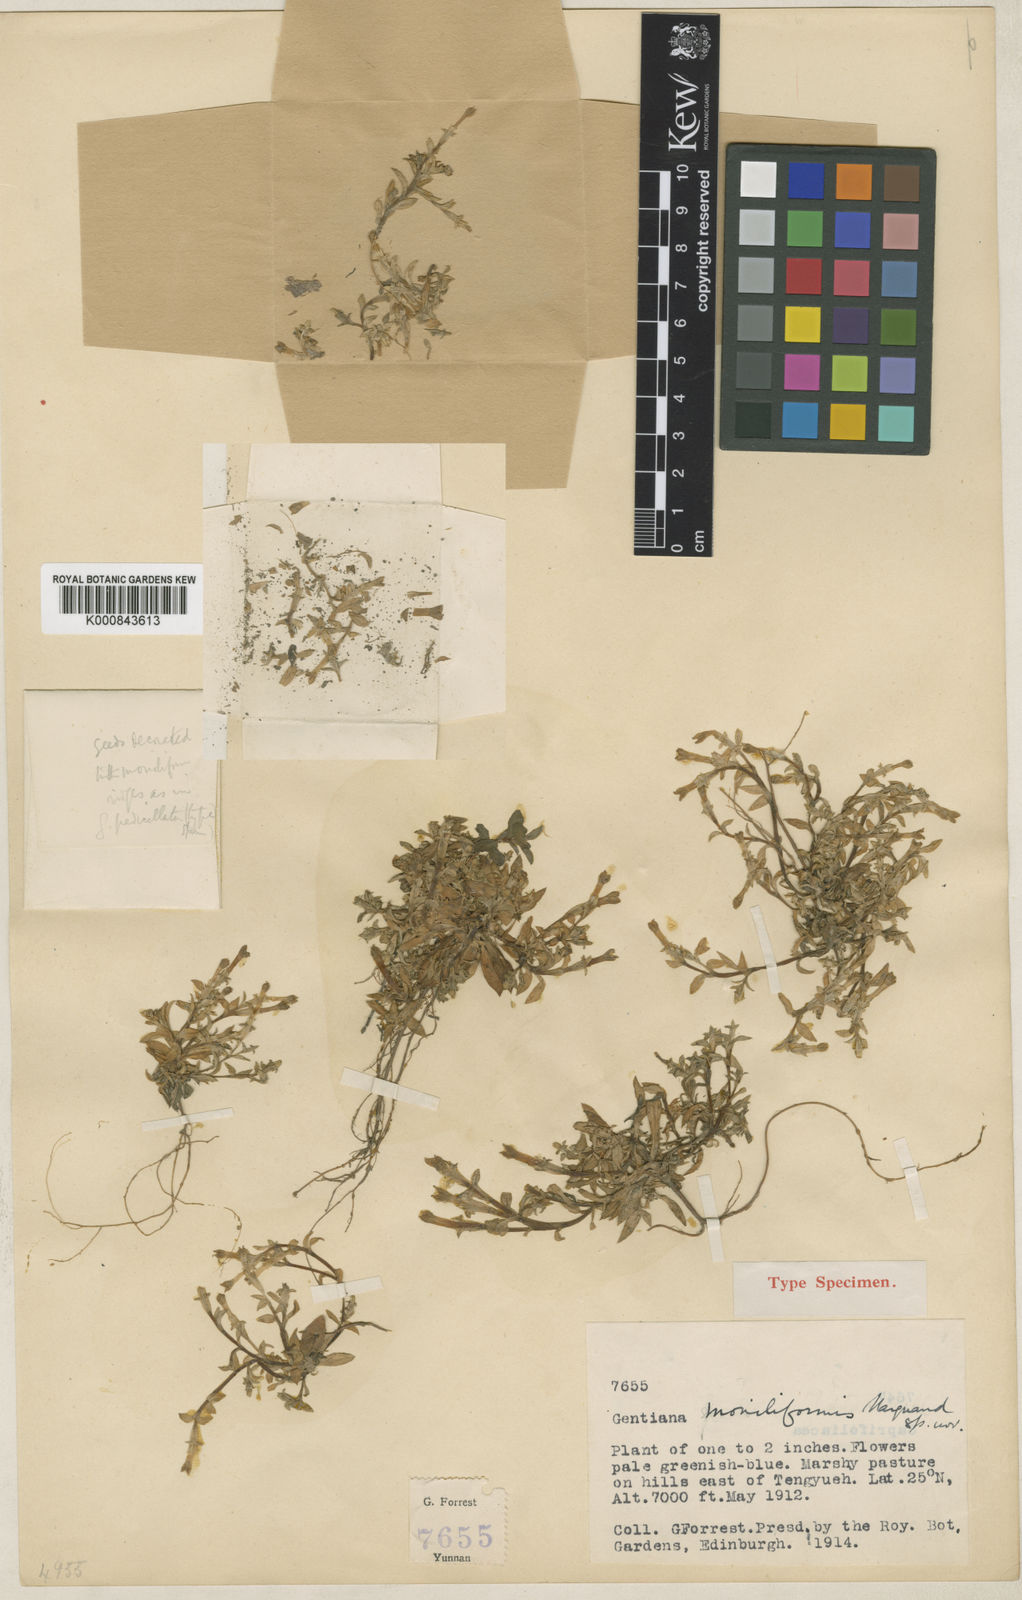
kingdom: Plantae
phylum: Tracheophyta
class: Magnoliopsida
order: Gentianales
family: Gentianaceae
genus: Gentiana
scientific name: Gentiana moniliformis
